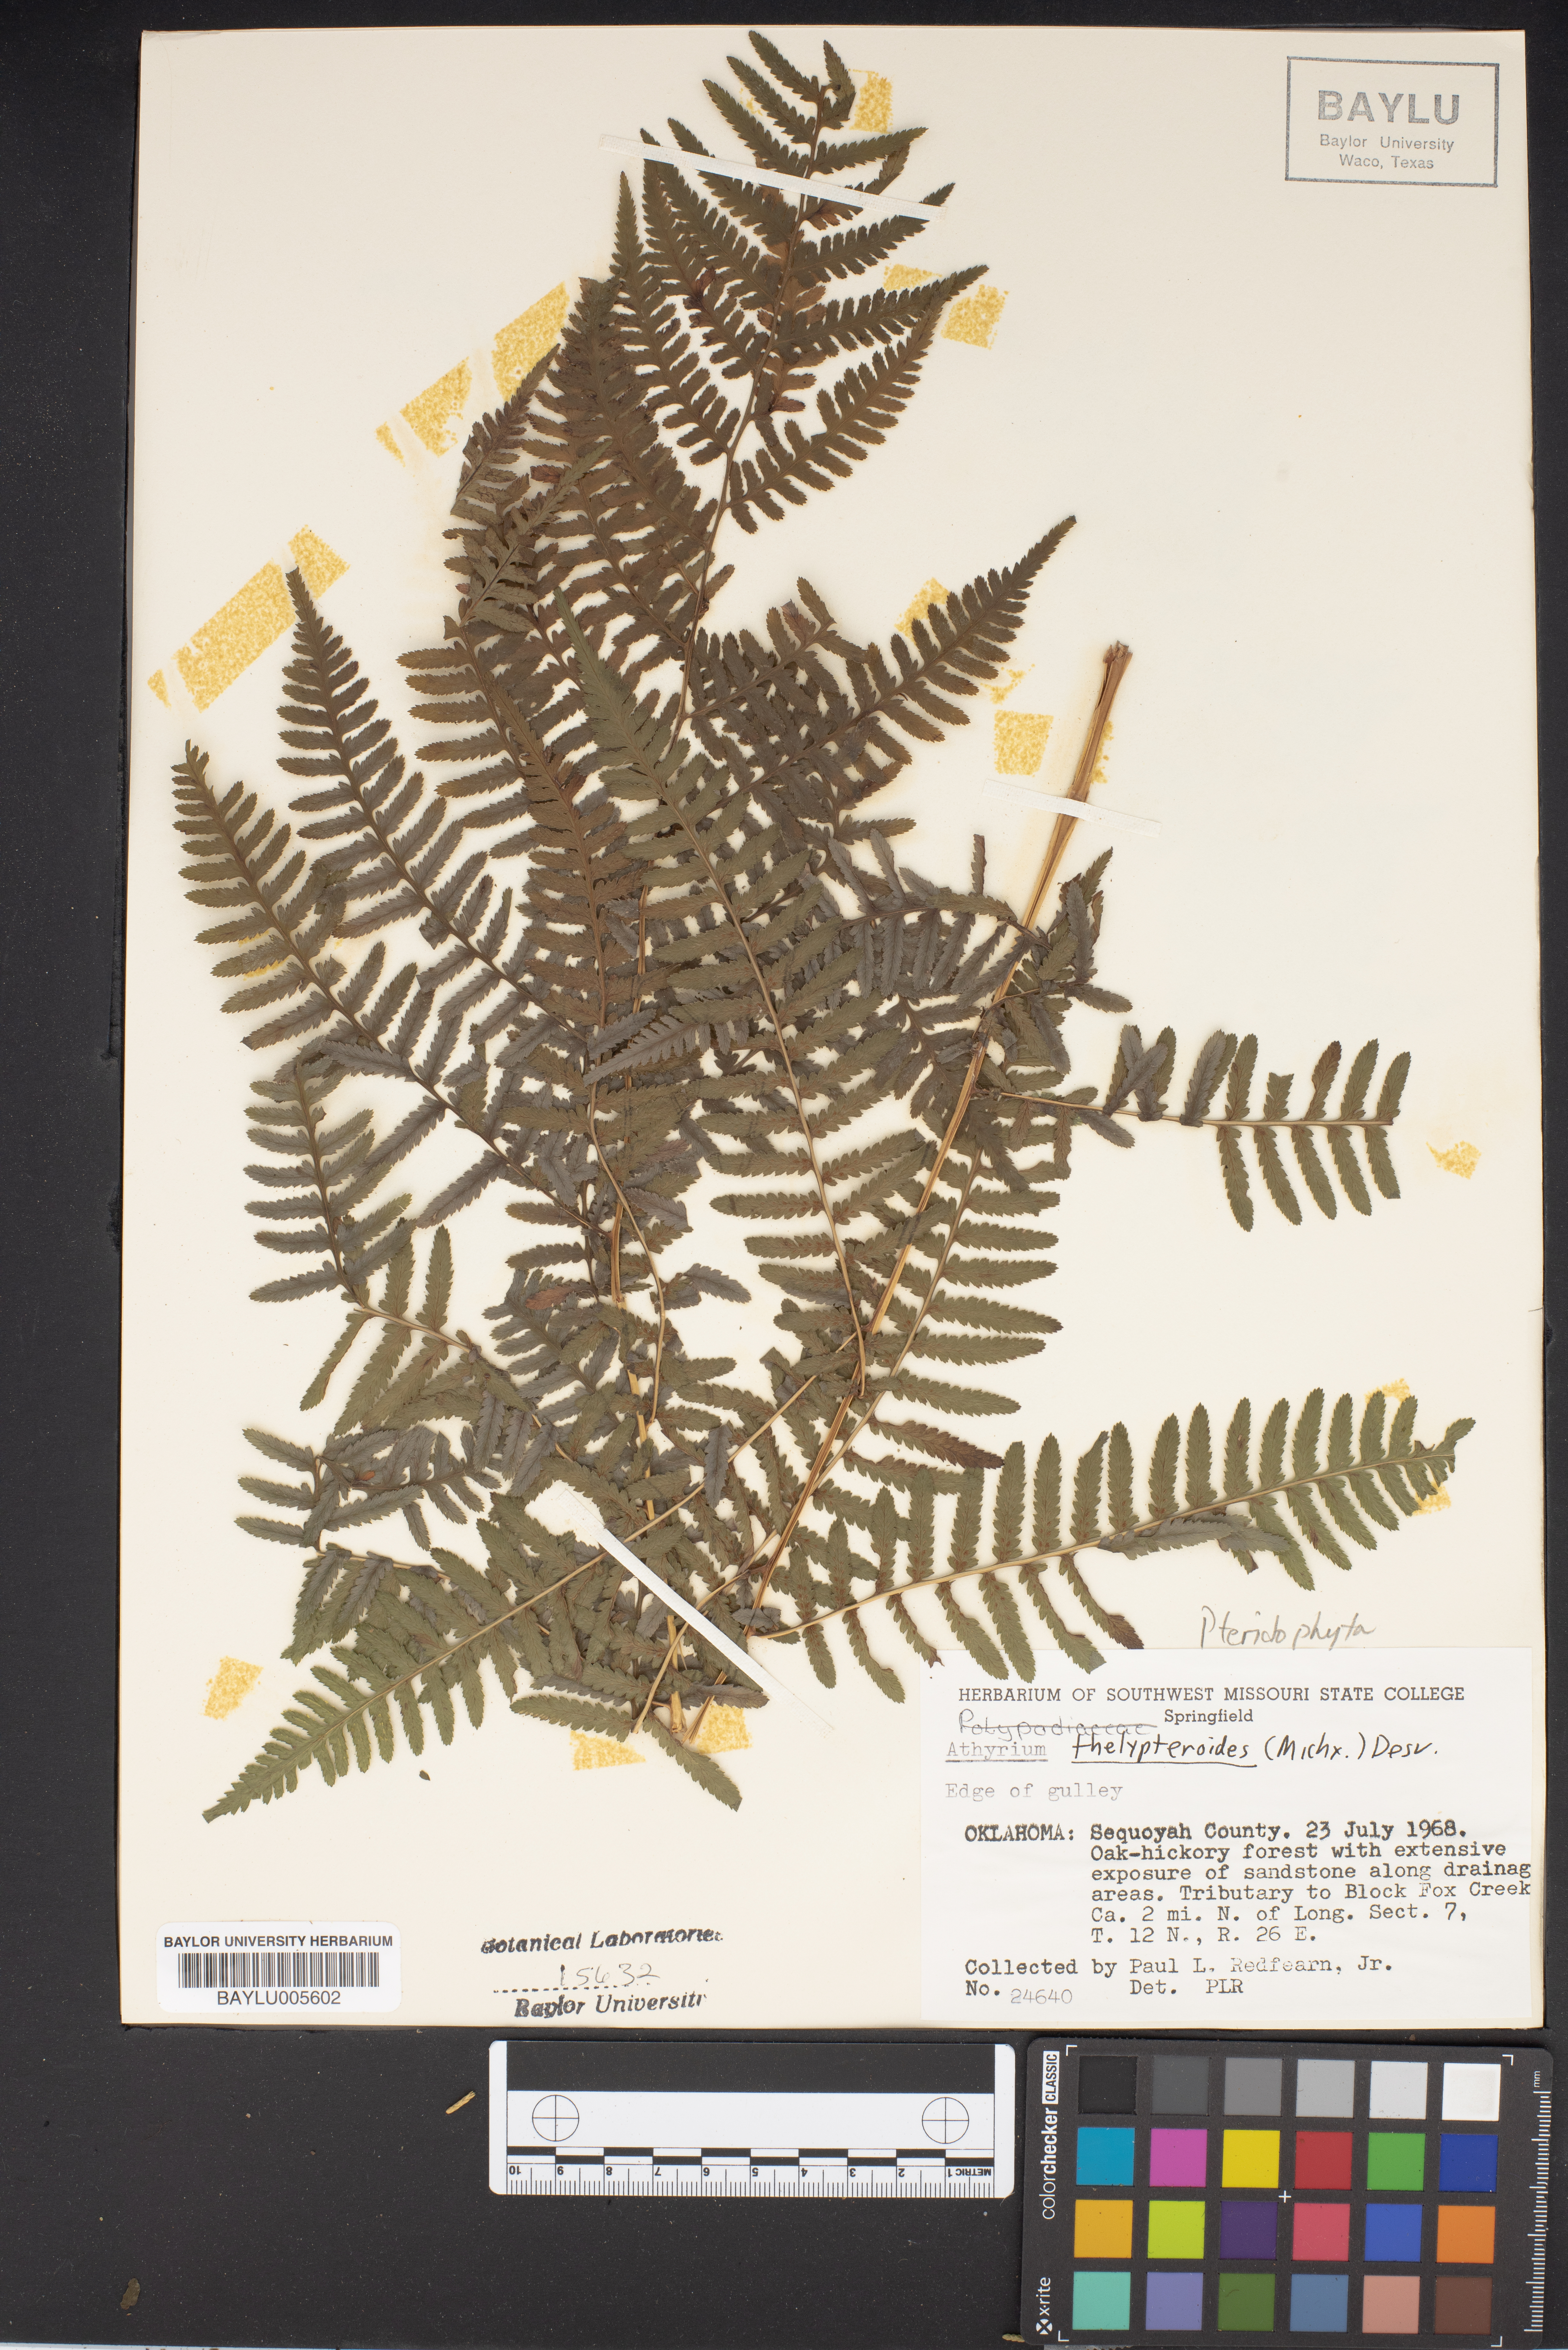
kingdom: Plantae
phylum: Tracheophyta
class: Polypodiopsida
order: Polypodiales
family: Athyriaceae
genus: Deparia
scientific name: Deparia acrostichoides
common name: Silver false spleenwort
